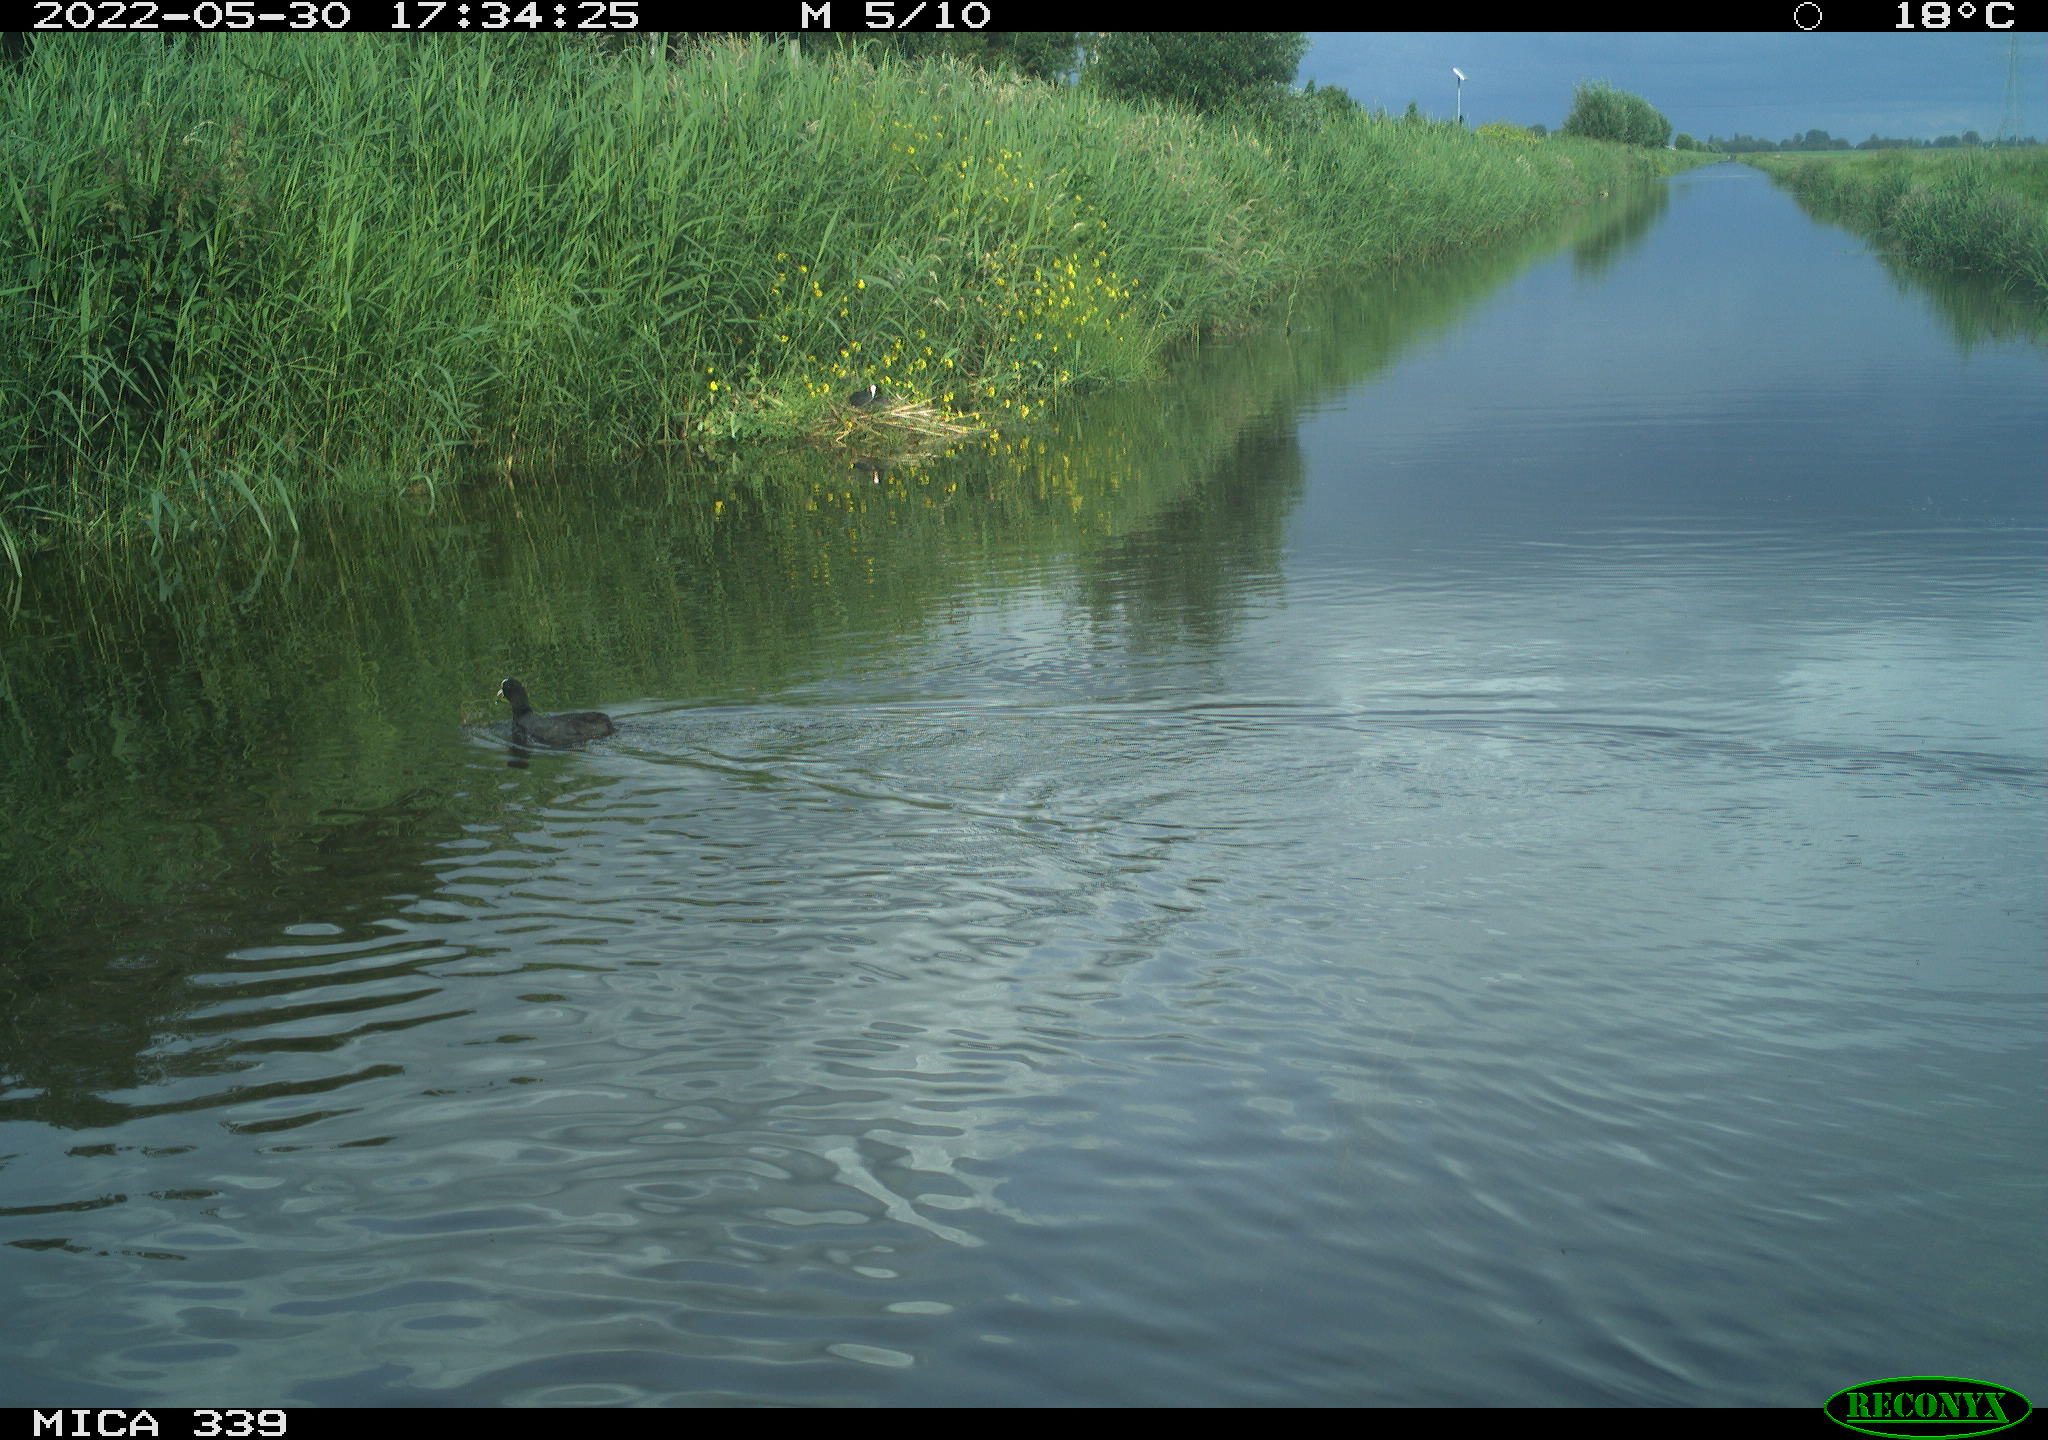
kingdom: Animalia
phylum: Chordata
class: Aves
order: Gruiformes
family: Rallidae
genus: Fulica
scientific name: Fulica atra
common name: Eurasian coot
